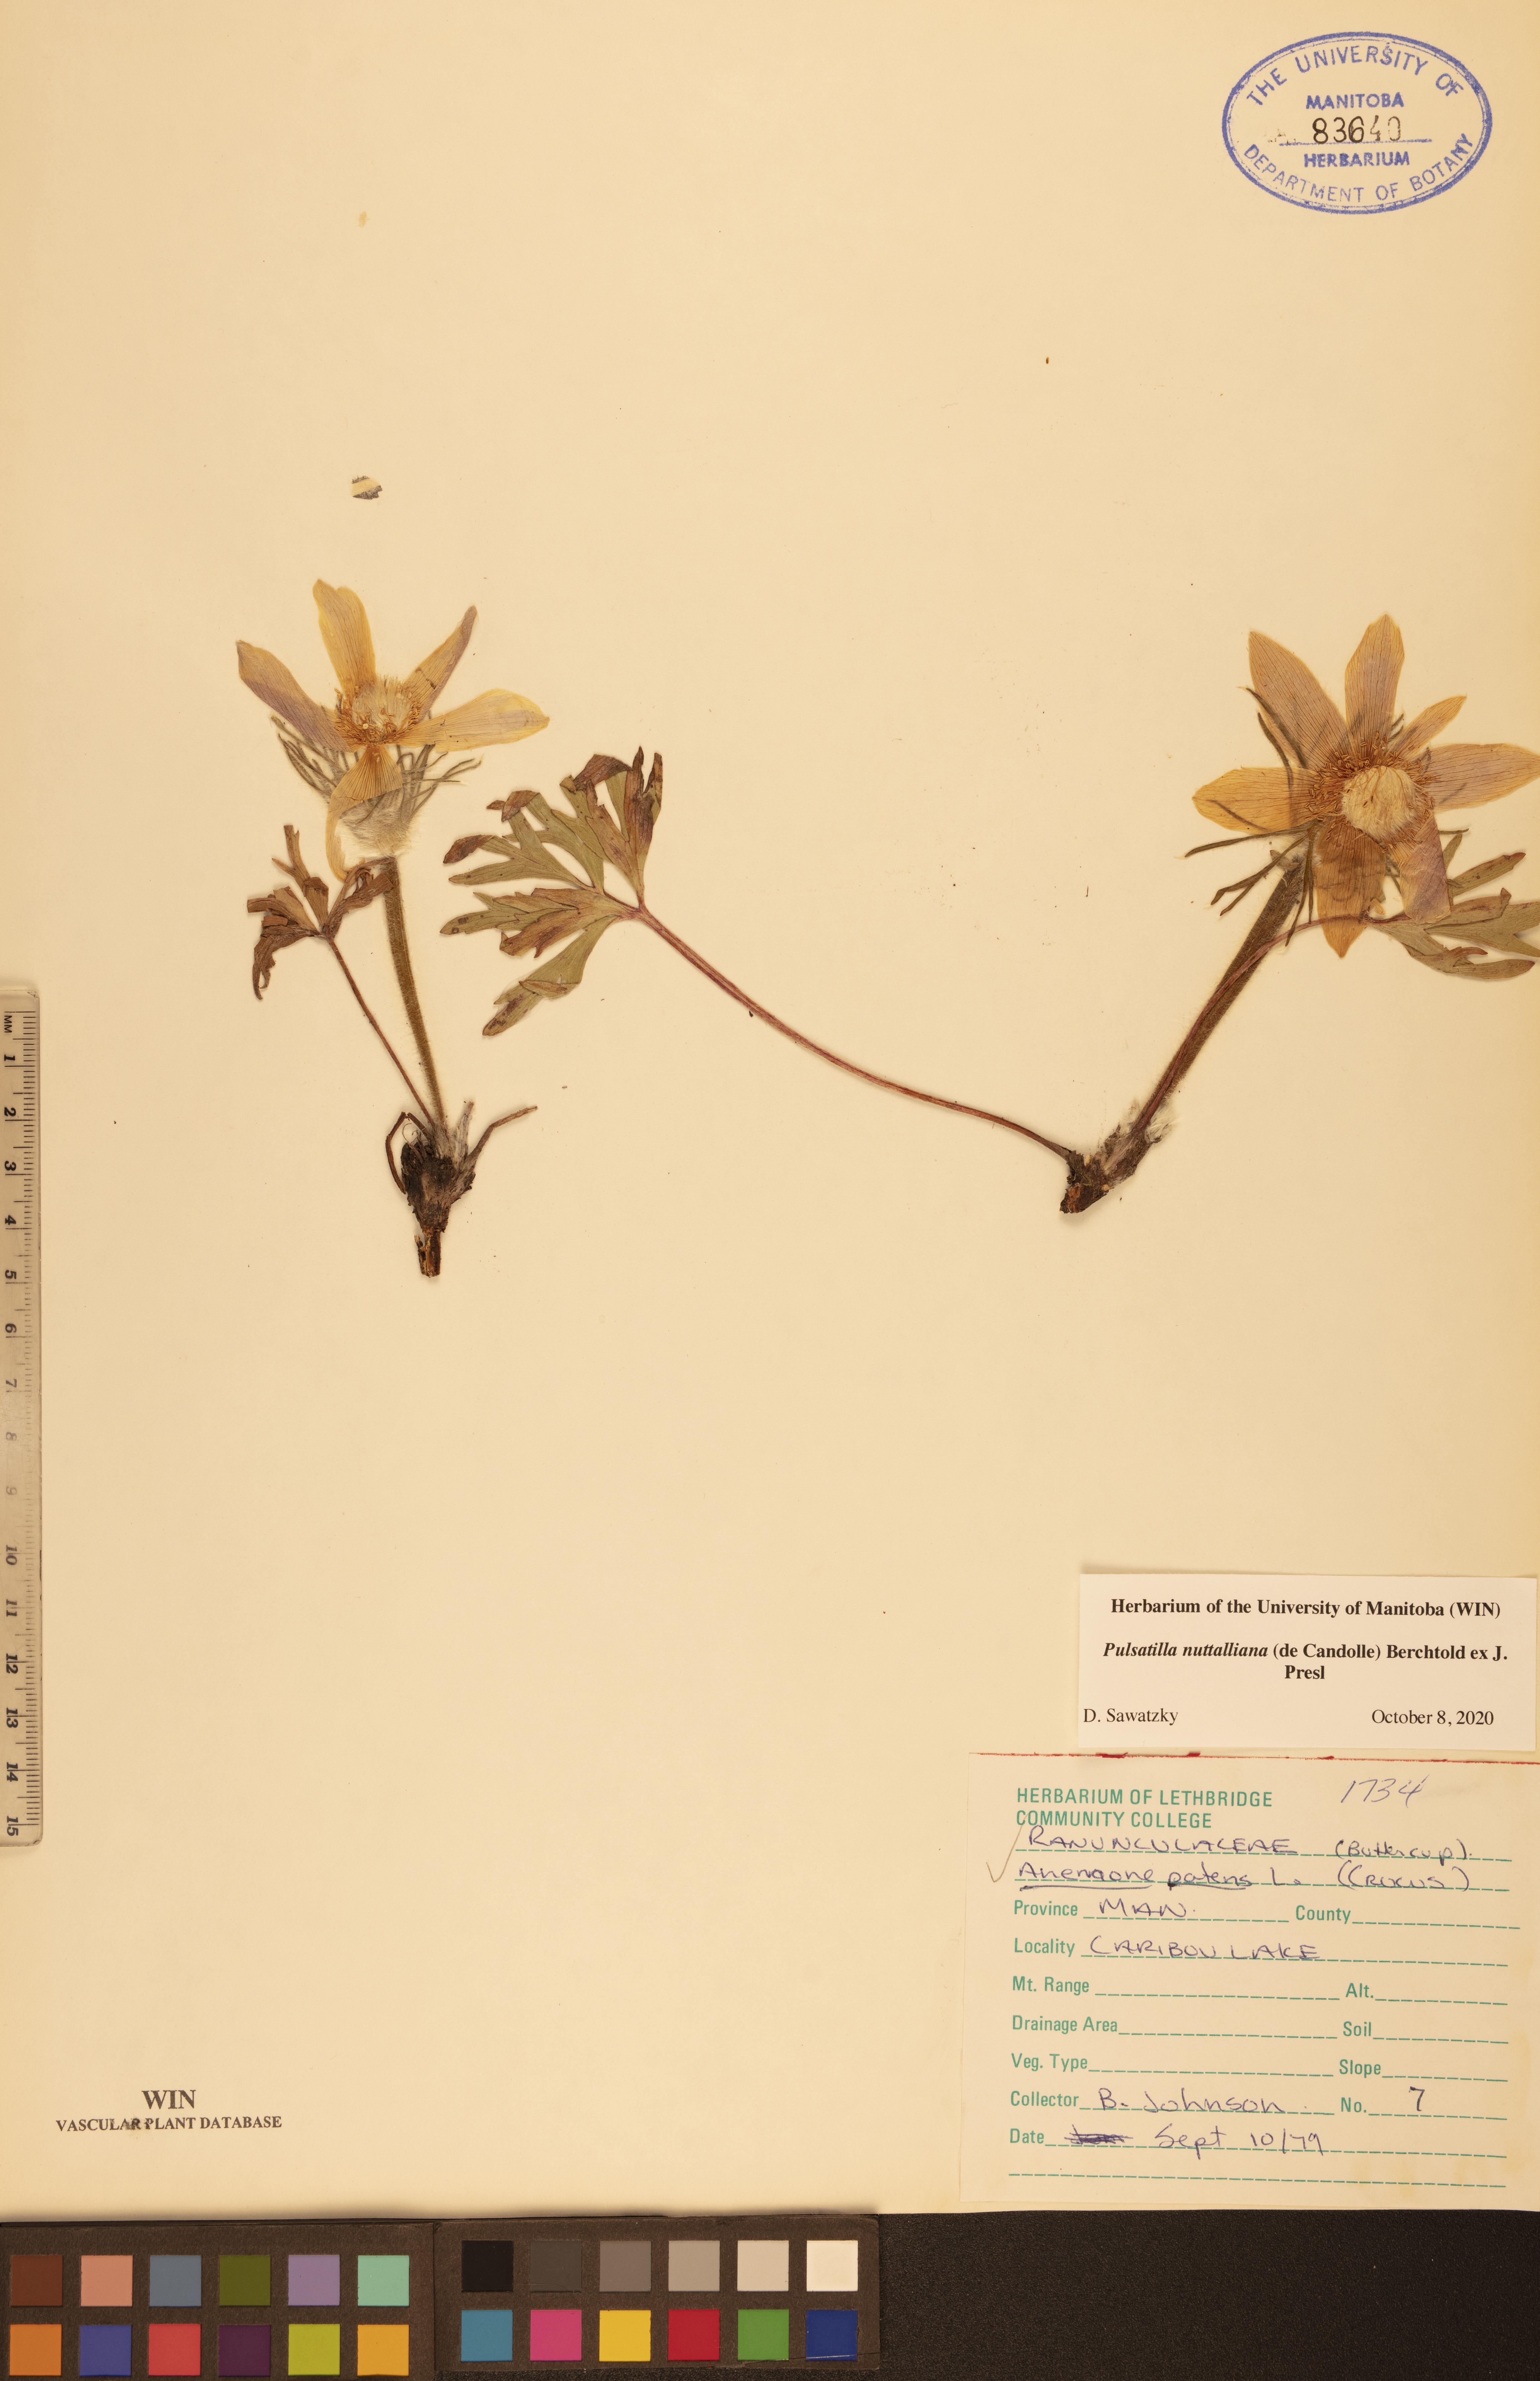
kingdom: Plantae
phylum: Tracheophyta
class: Magnoliopsida
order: Ranunculales
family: Ranunculaceae
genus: Pulsatilla
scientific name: Pulsatilla nuttalliana
